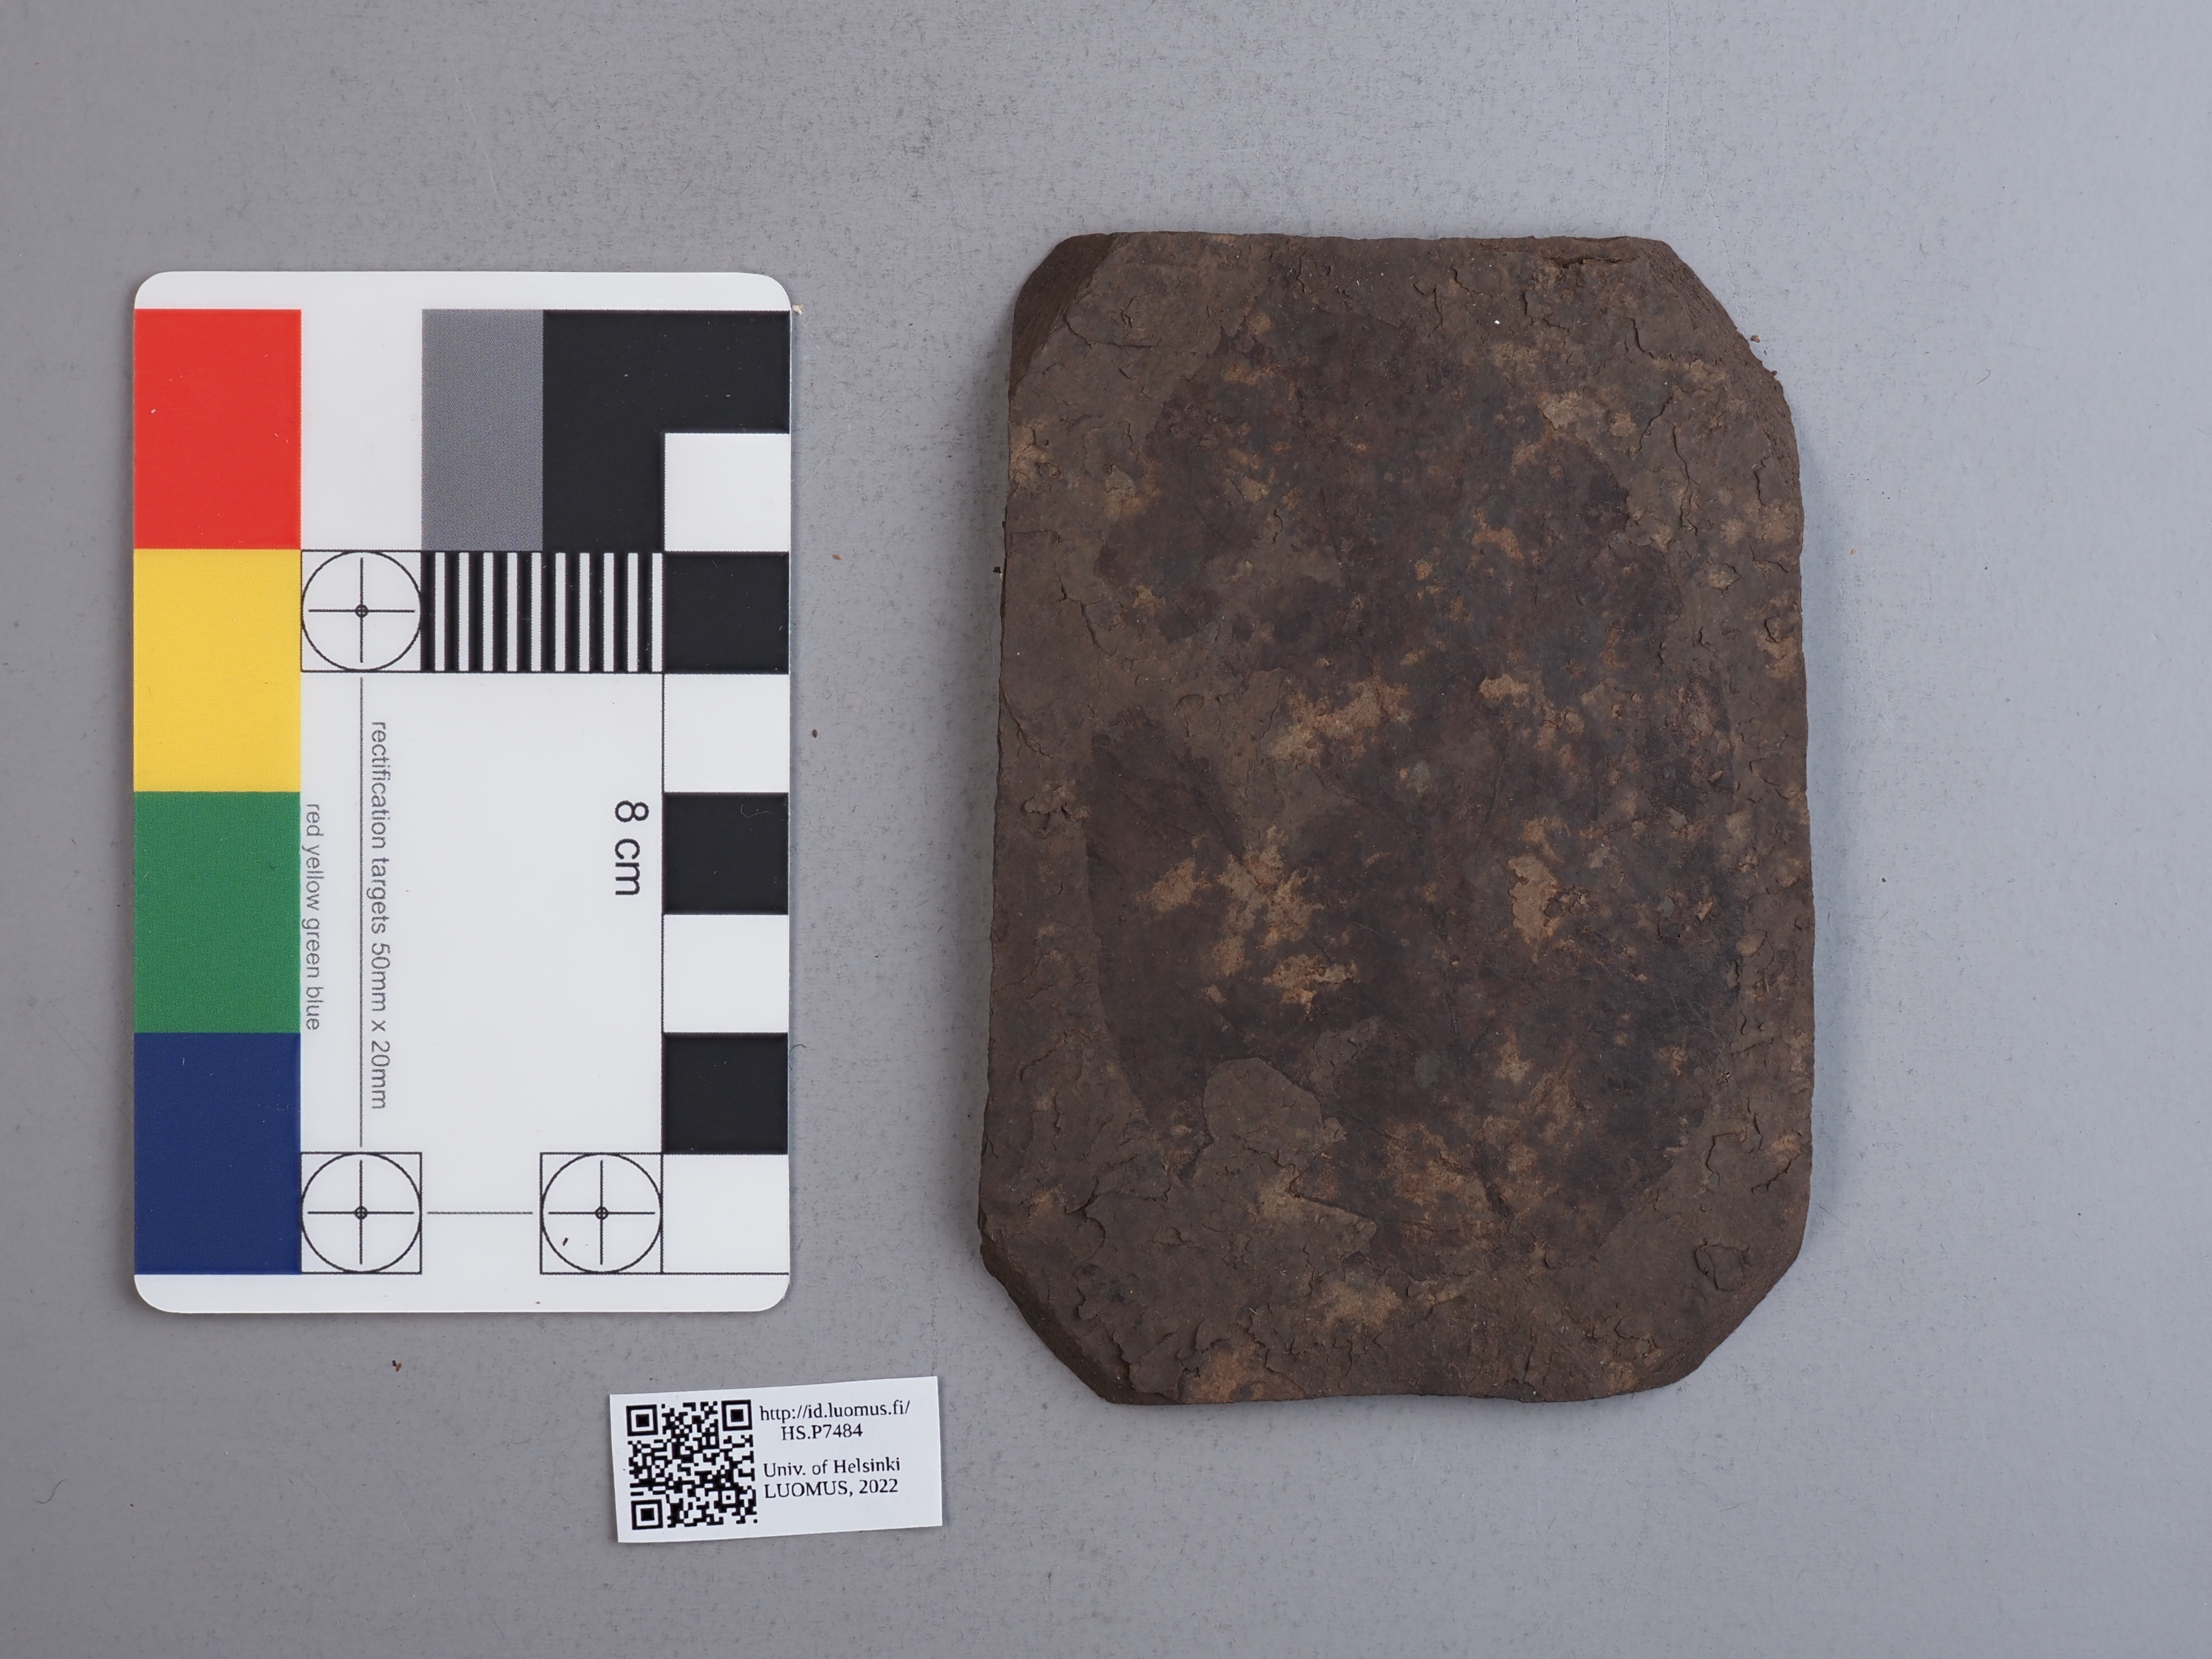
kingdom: Plantae
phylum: Tracheophyta
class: Magnoliopsida
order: Cornales
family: Cornaceae
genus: Cornus
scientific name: Cornus rhamnifolia
